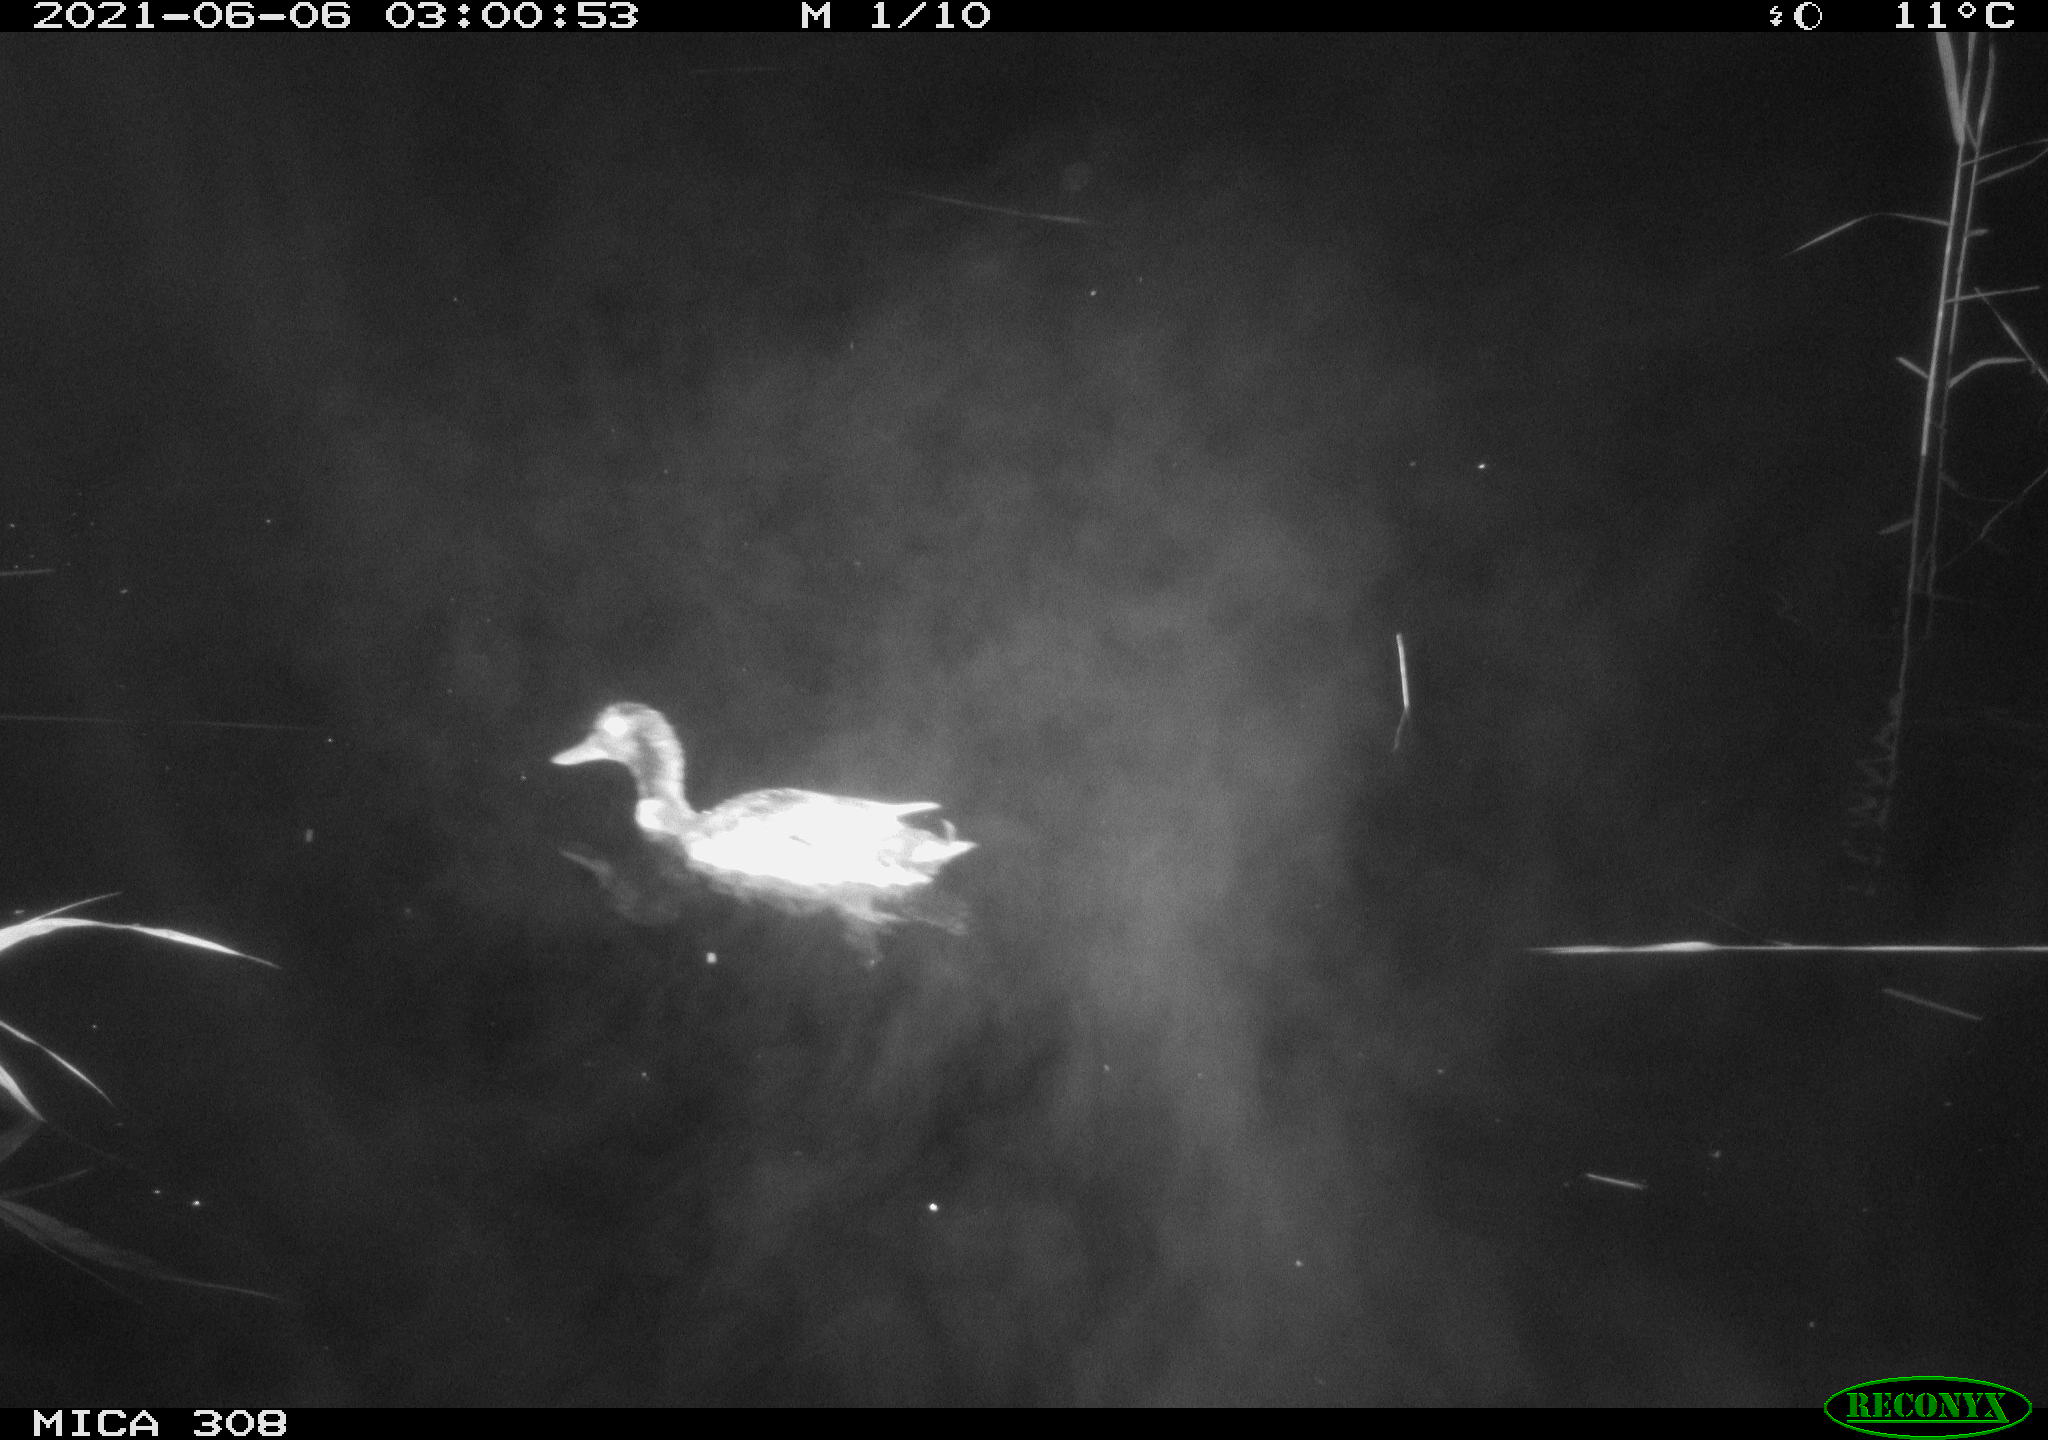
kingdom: Animalia
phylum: Chordata
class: Aves
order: Anseriformes
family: Anatidae
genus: Anas
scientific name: Anas platyrhynchos
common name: Mallard
